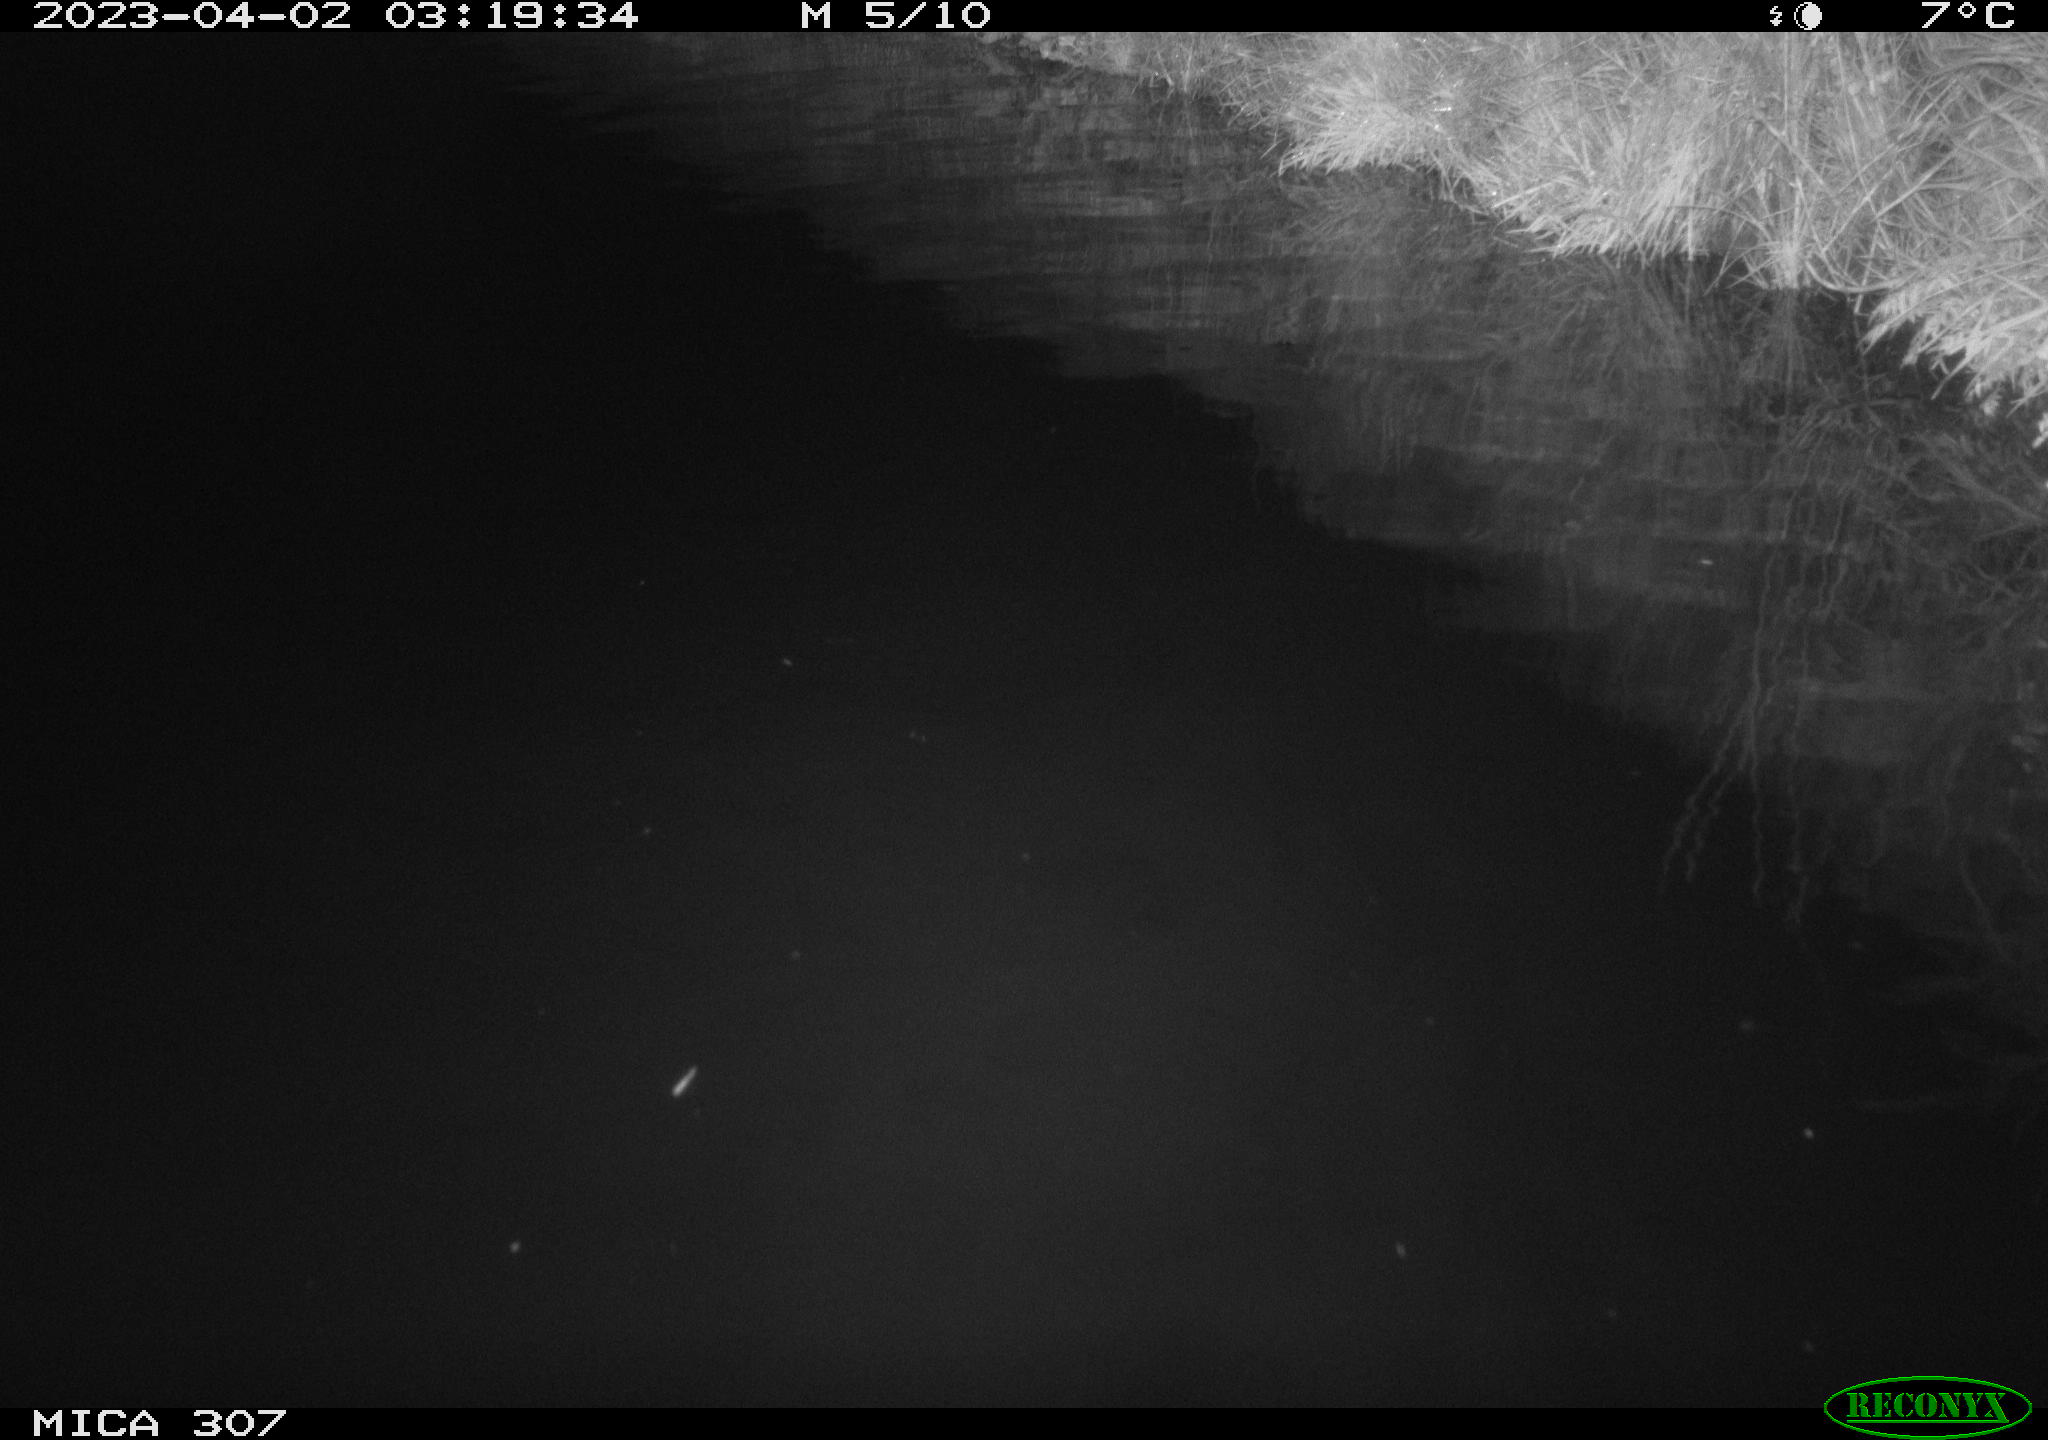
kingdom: Animalia
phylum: Chordata
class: Aves
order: Anseriformes
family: Anatidae
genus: Anas
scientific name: Anas
